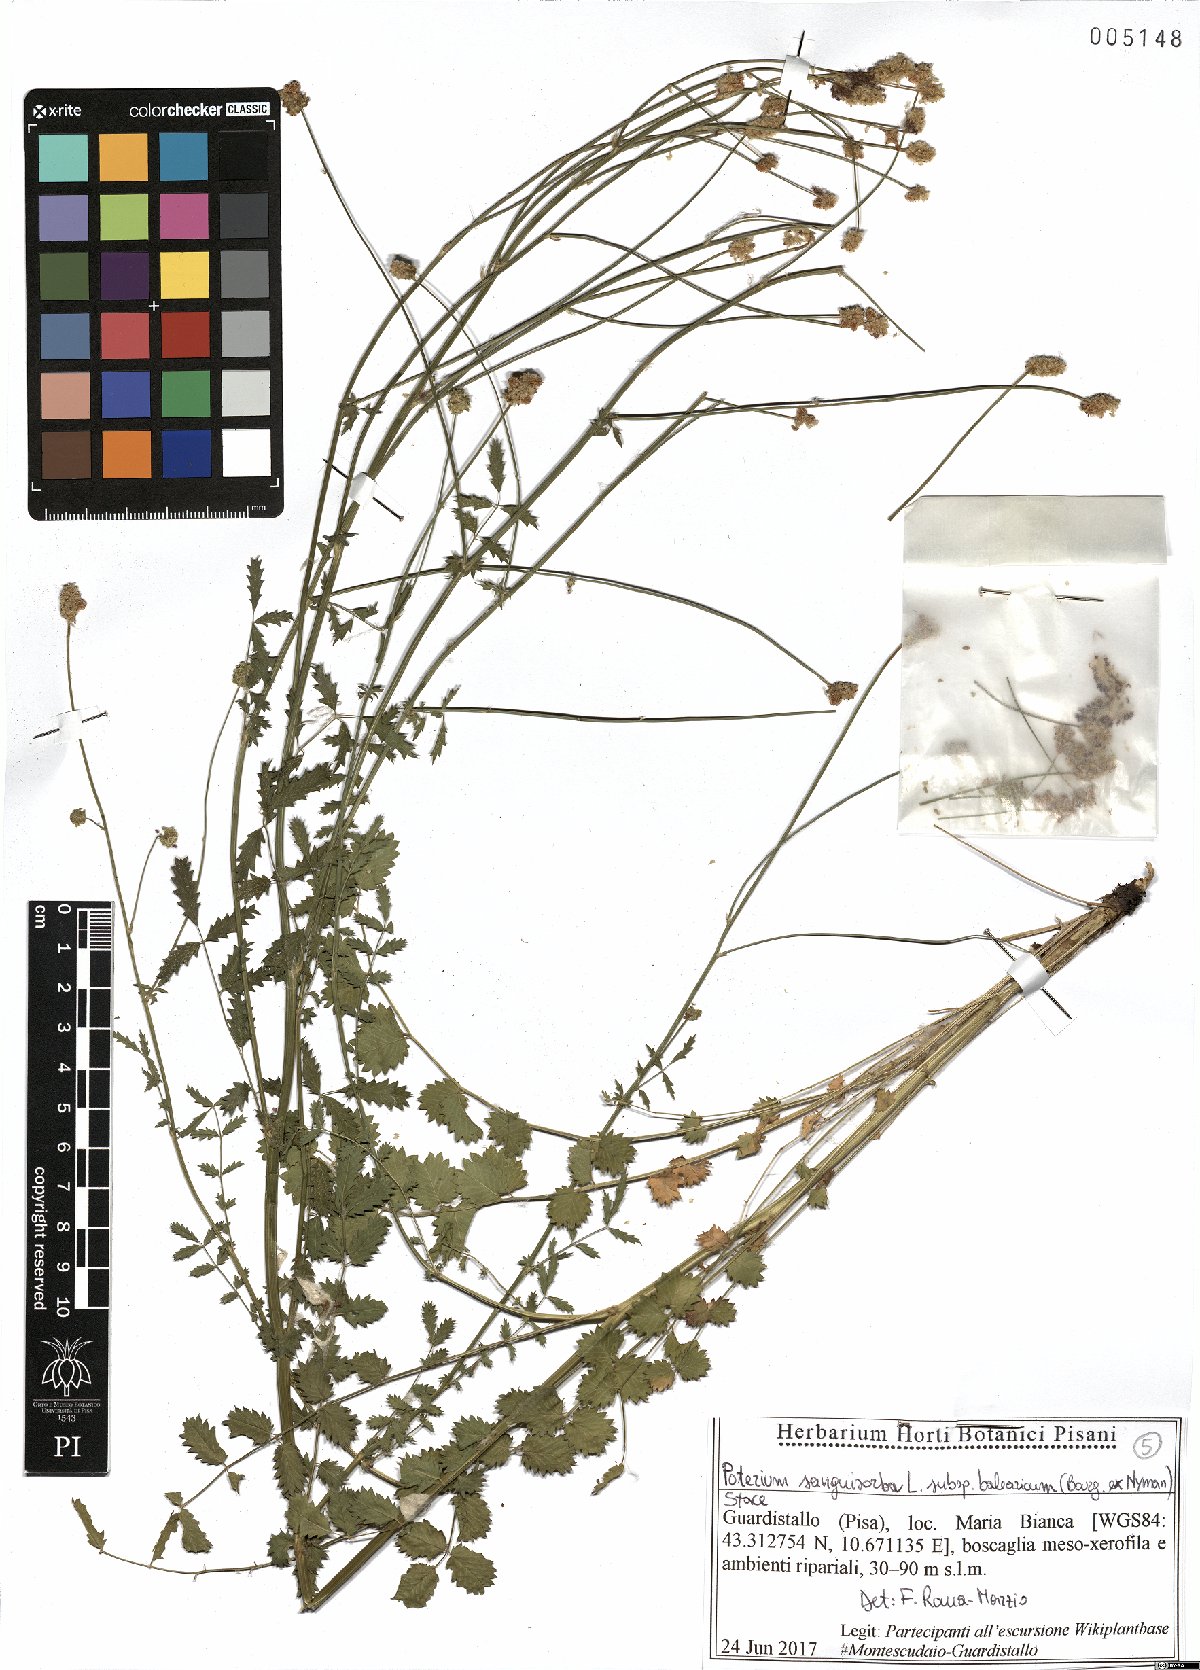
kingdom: Plantae
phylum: Tracheophyta
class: Magnoliopsida
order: Rosales
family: Rosaceae
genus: Poterium
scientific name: Poterium sanguisorba
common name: Salad burnet
